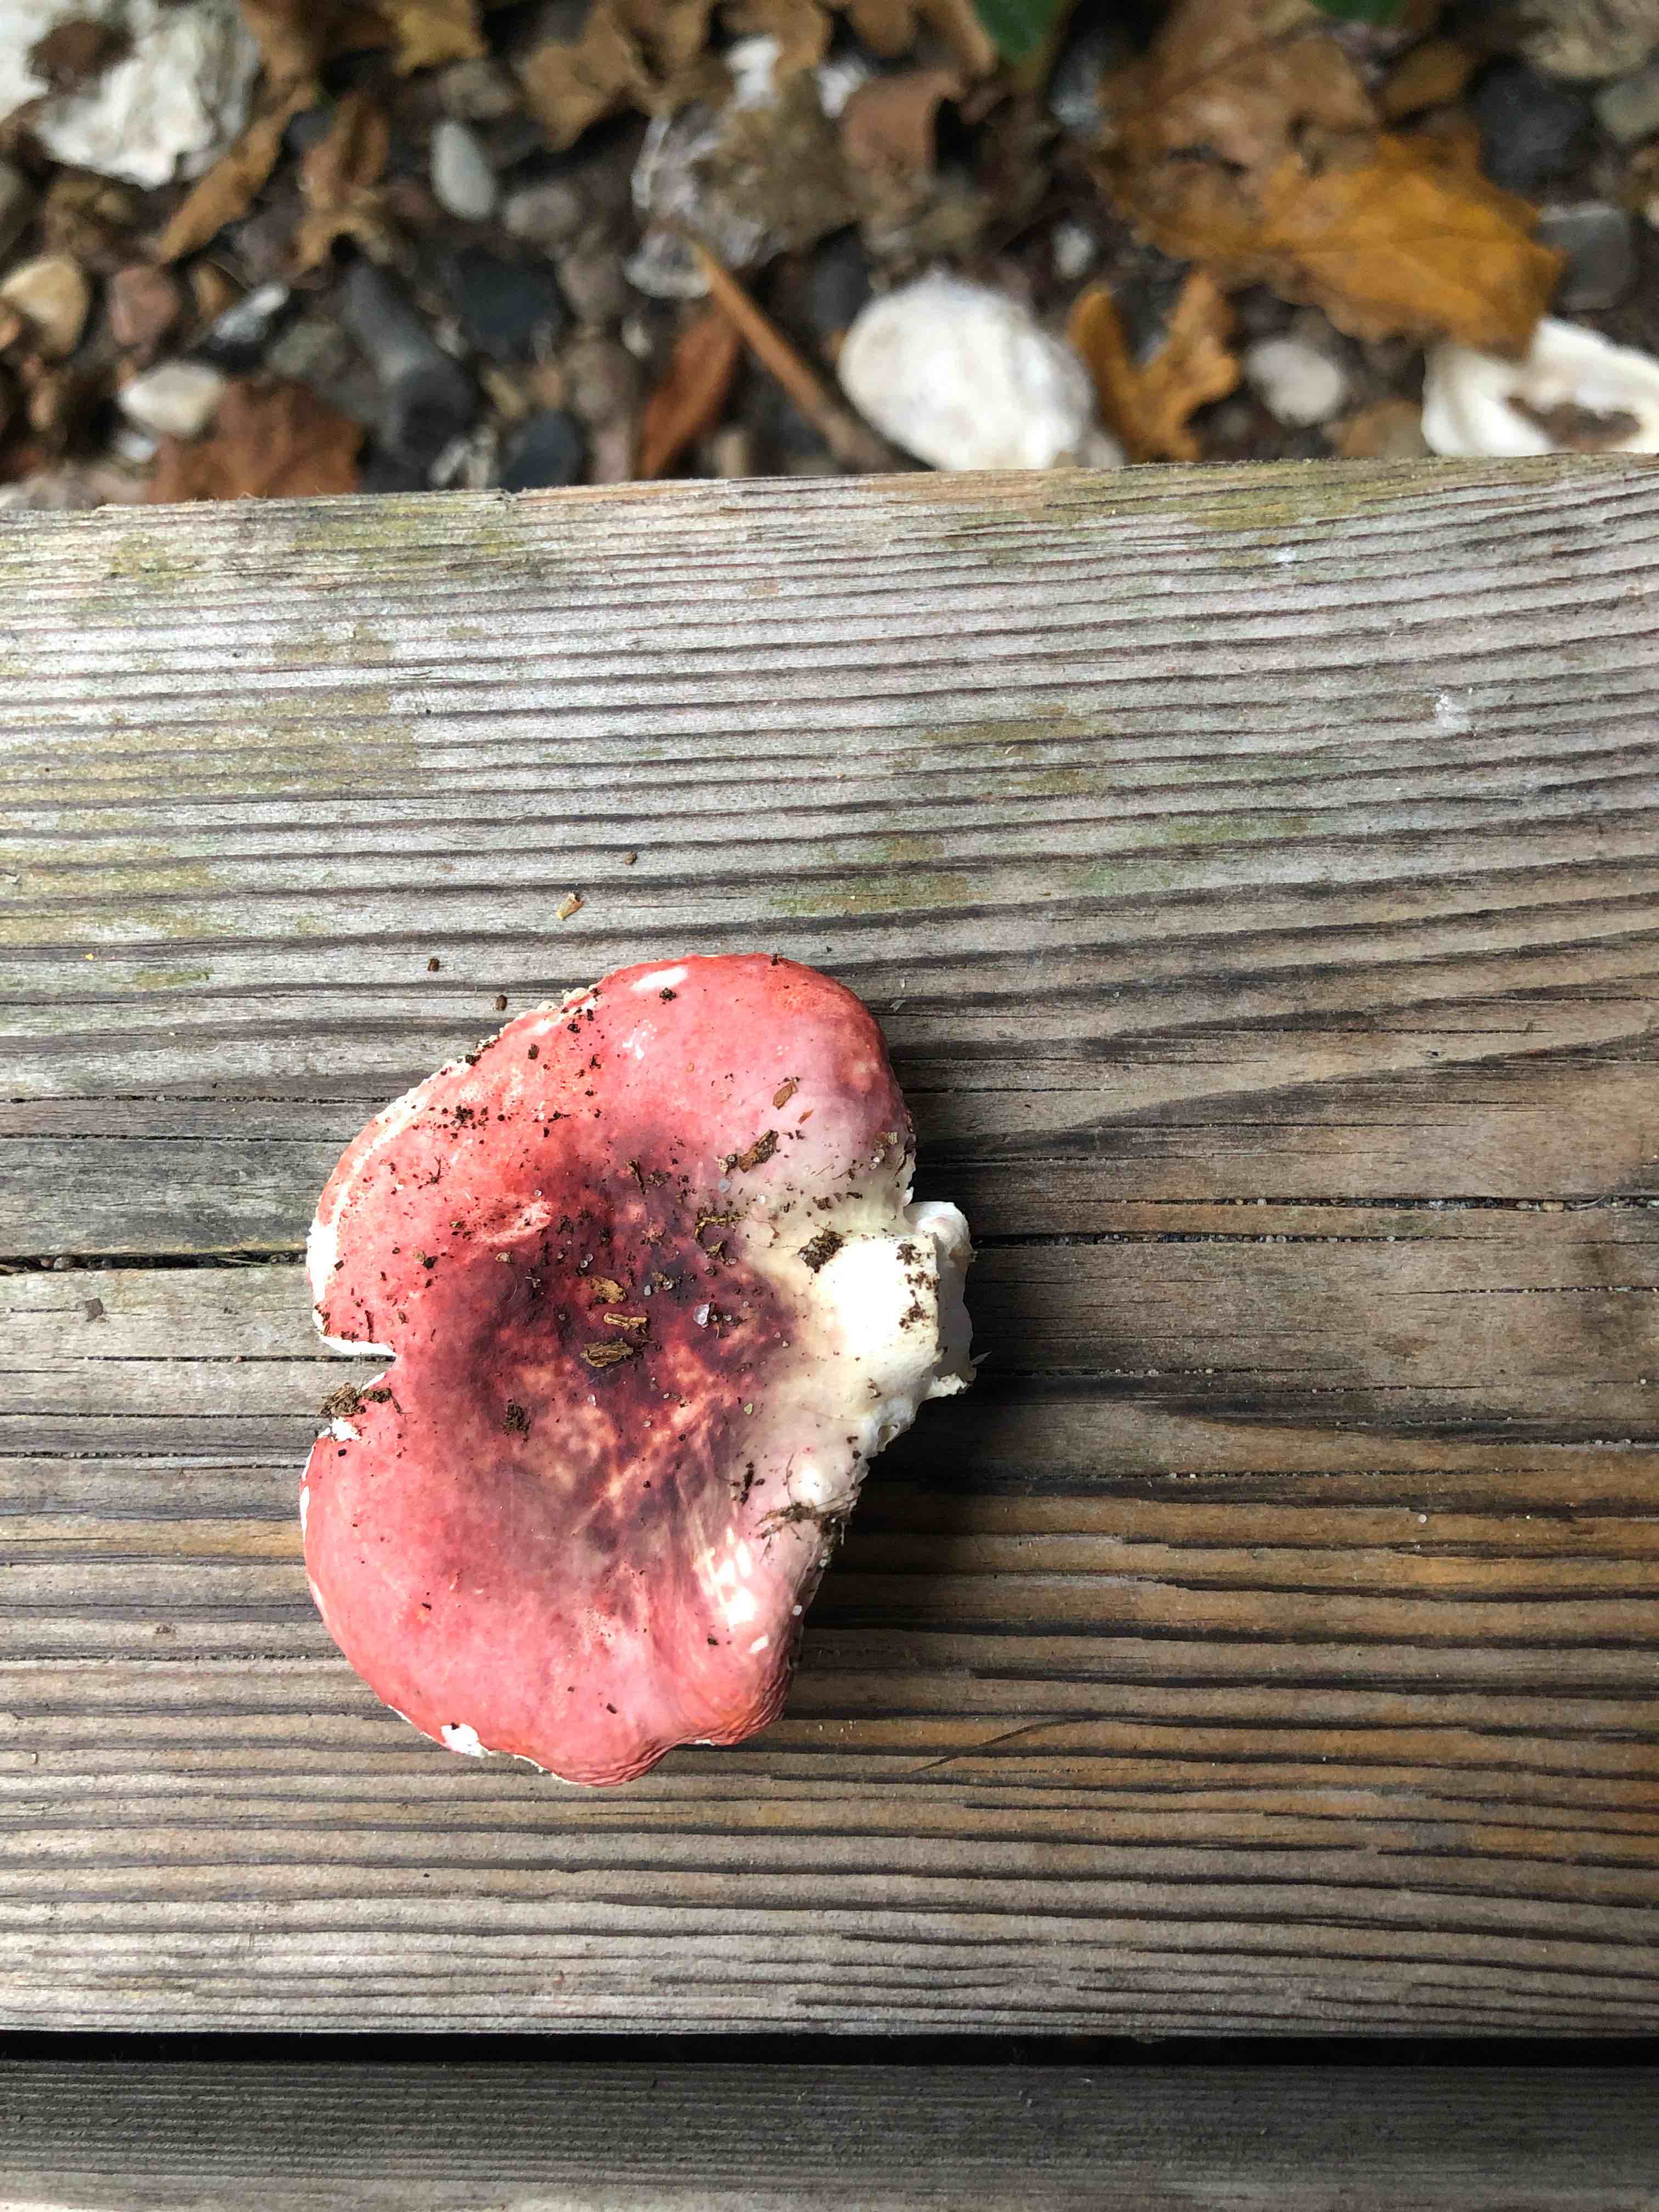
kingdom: Fungi
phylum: Basidiomycota
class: Agaricomycetes
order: Russulales
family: Russulaceae
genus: Russula
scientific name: Russula
